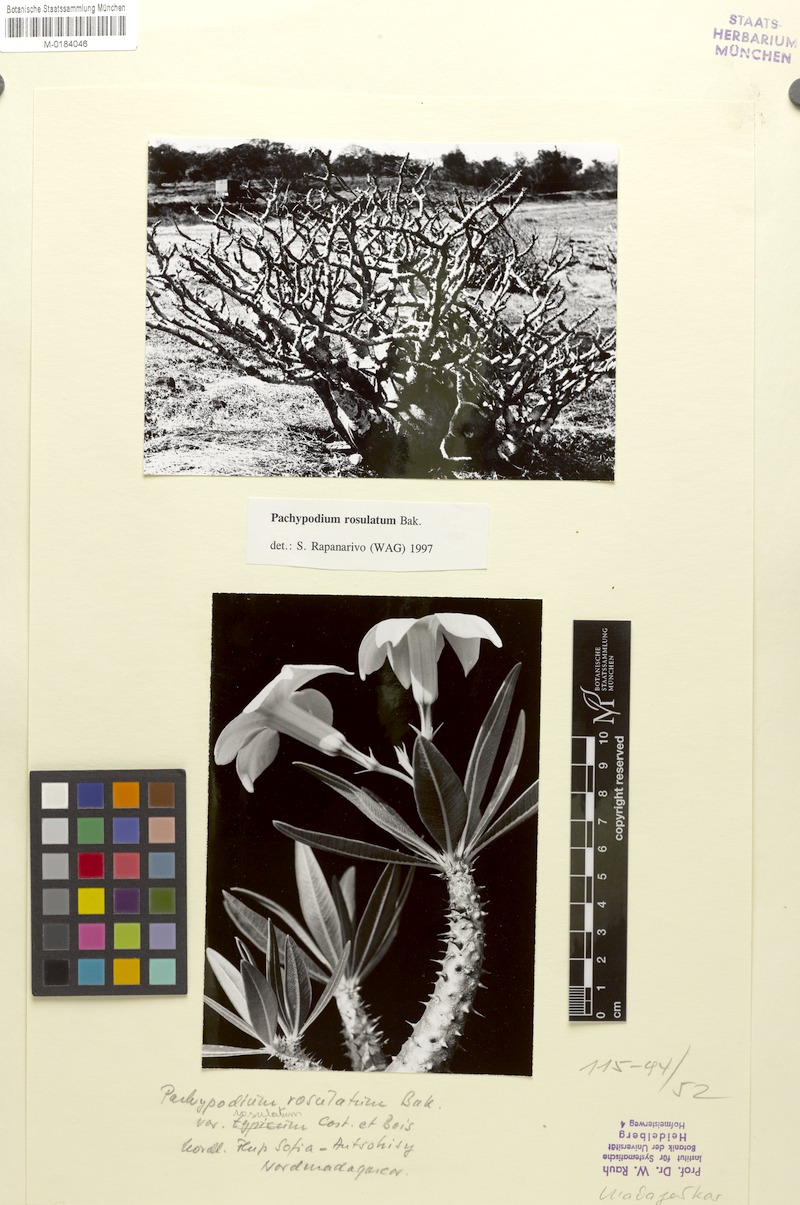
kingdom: Plantae
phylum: Tracheophyta
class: Magnoliopsida
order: Gentianales
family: Apocynaceae
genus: Pachypodium
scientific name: Pachypodium rosulatum
